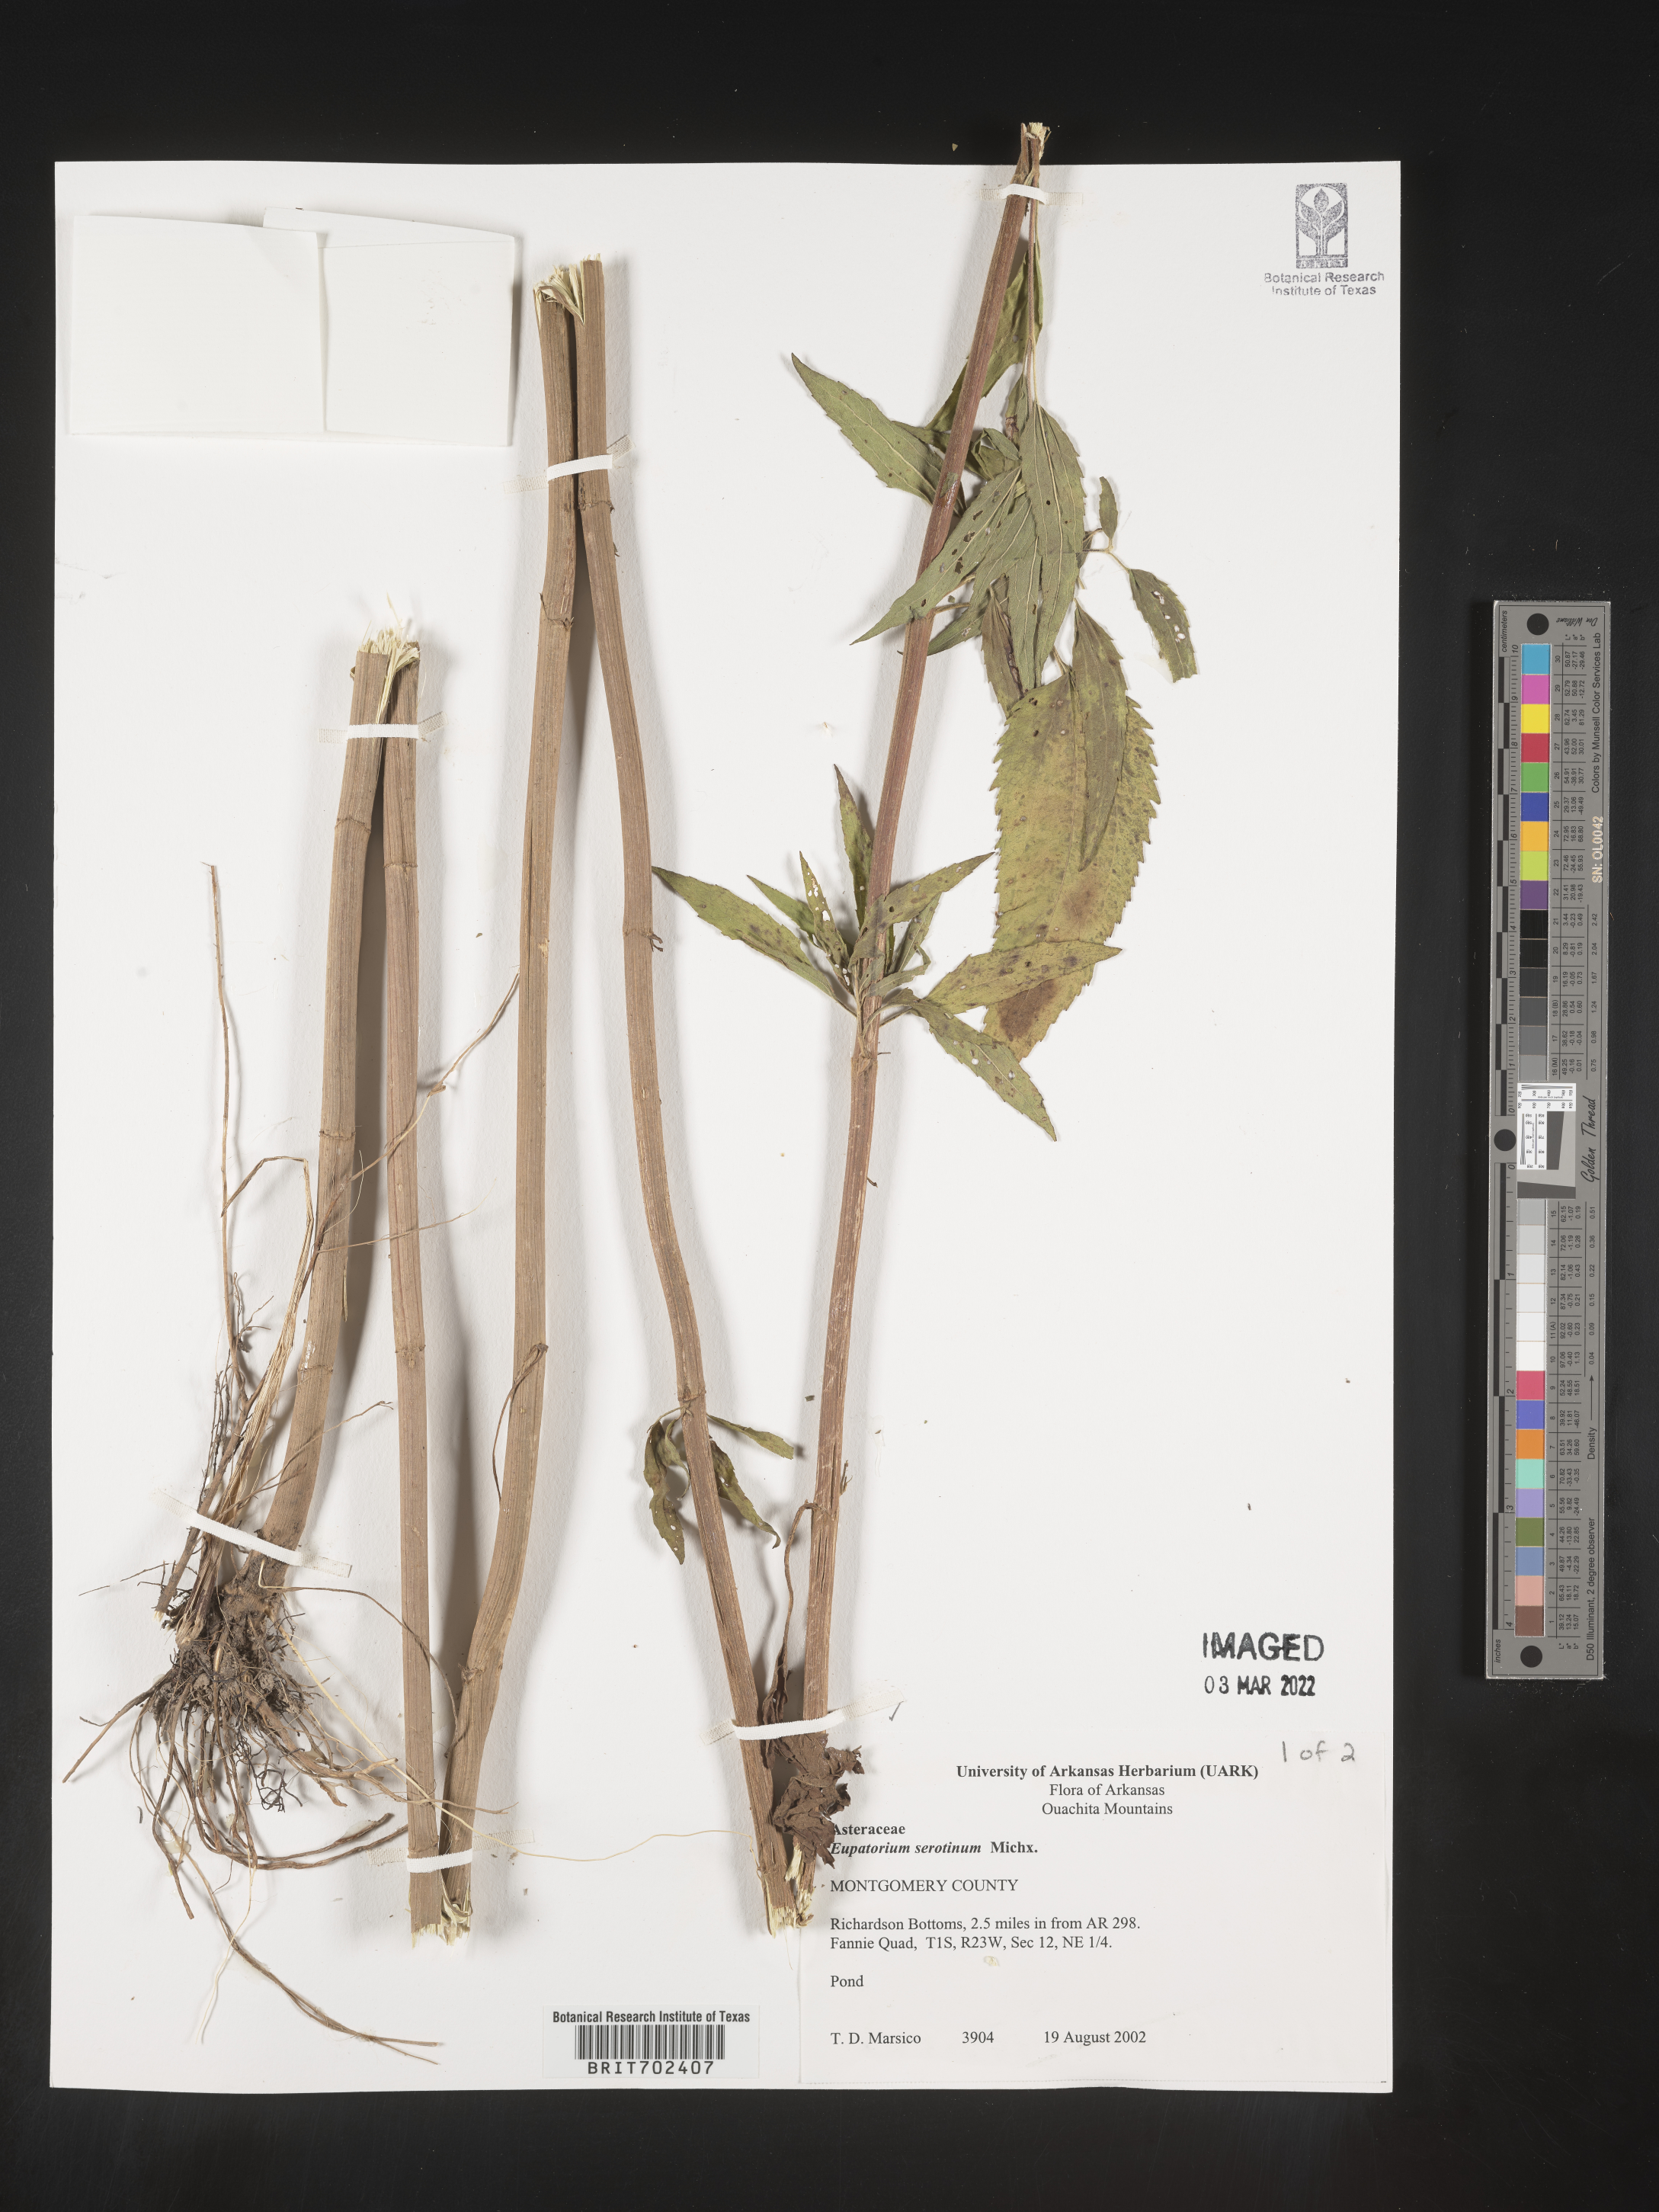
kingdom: Plantae
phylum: Tracheophyta
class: Magnoliopsida
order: Asterales
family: Asteraceae
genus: Eupatorium
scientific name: Eupatorium serotinum
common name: Late boneset
